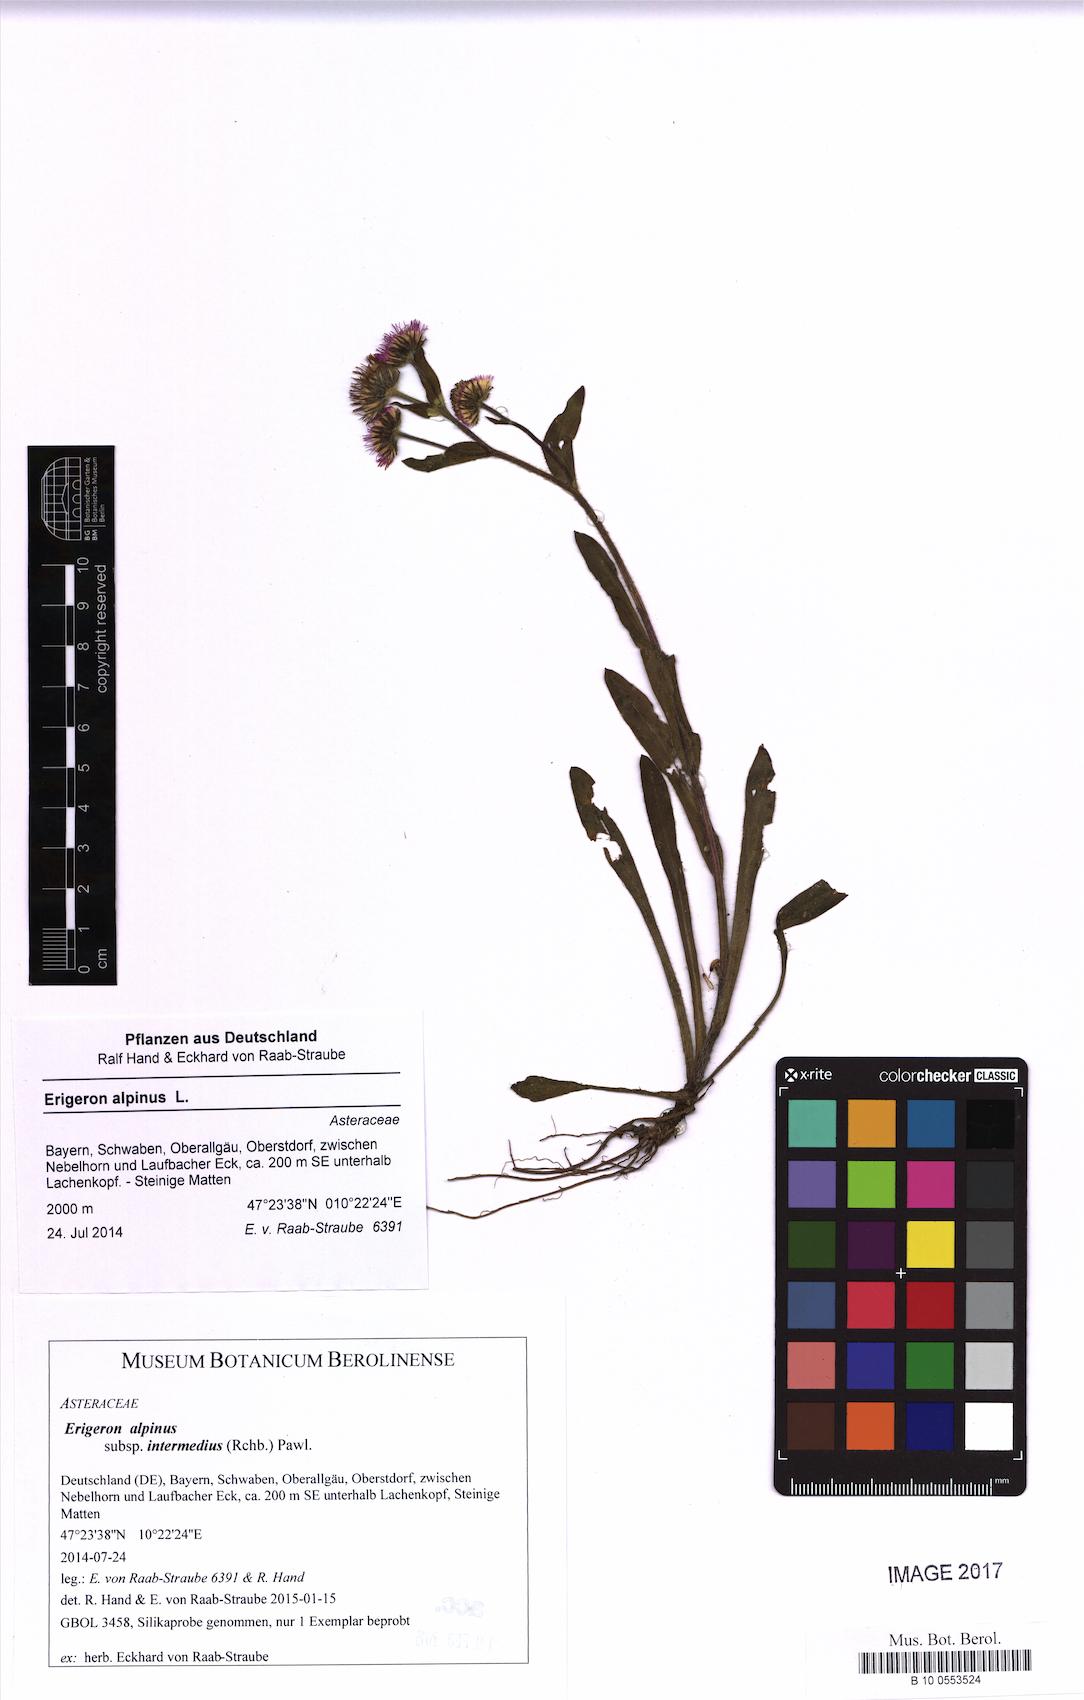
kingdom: Plantae
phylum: Tracheophyta
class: Magnoliopsida
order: Asterales
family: Asteraceae
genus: Erigeron
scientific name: Erigeron alpinus
